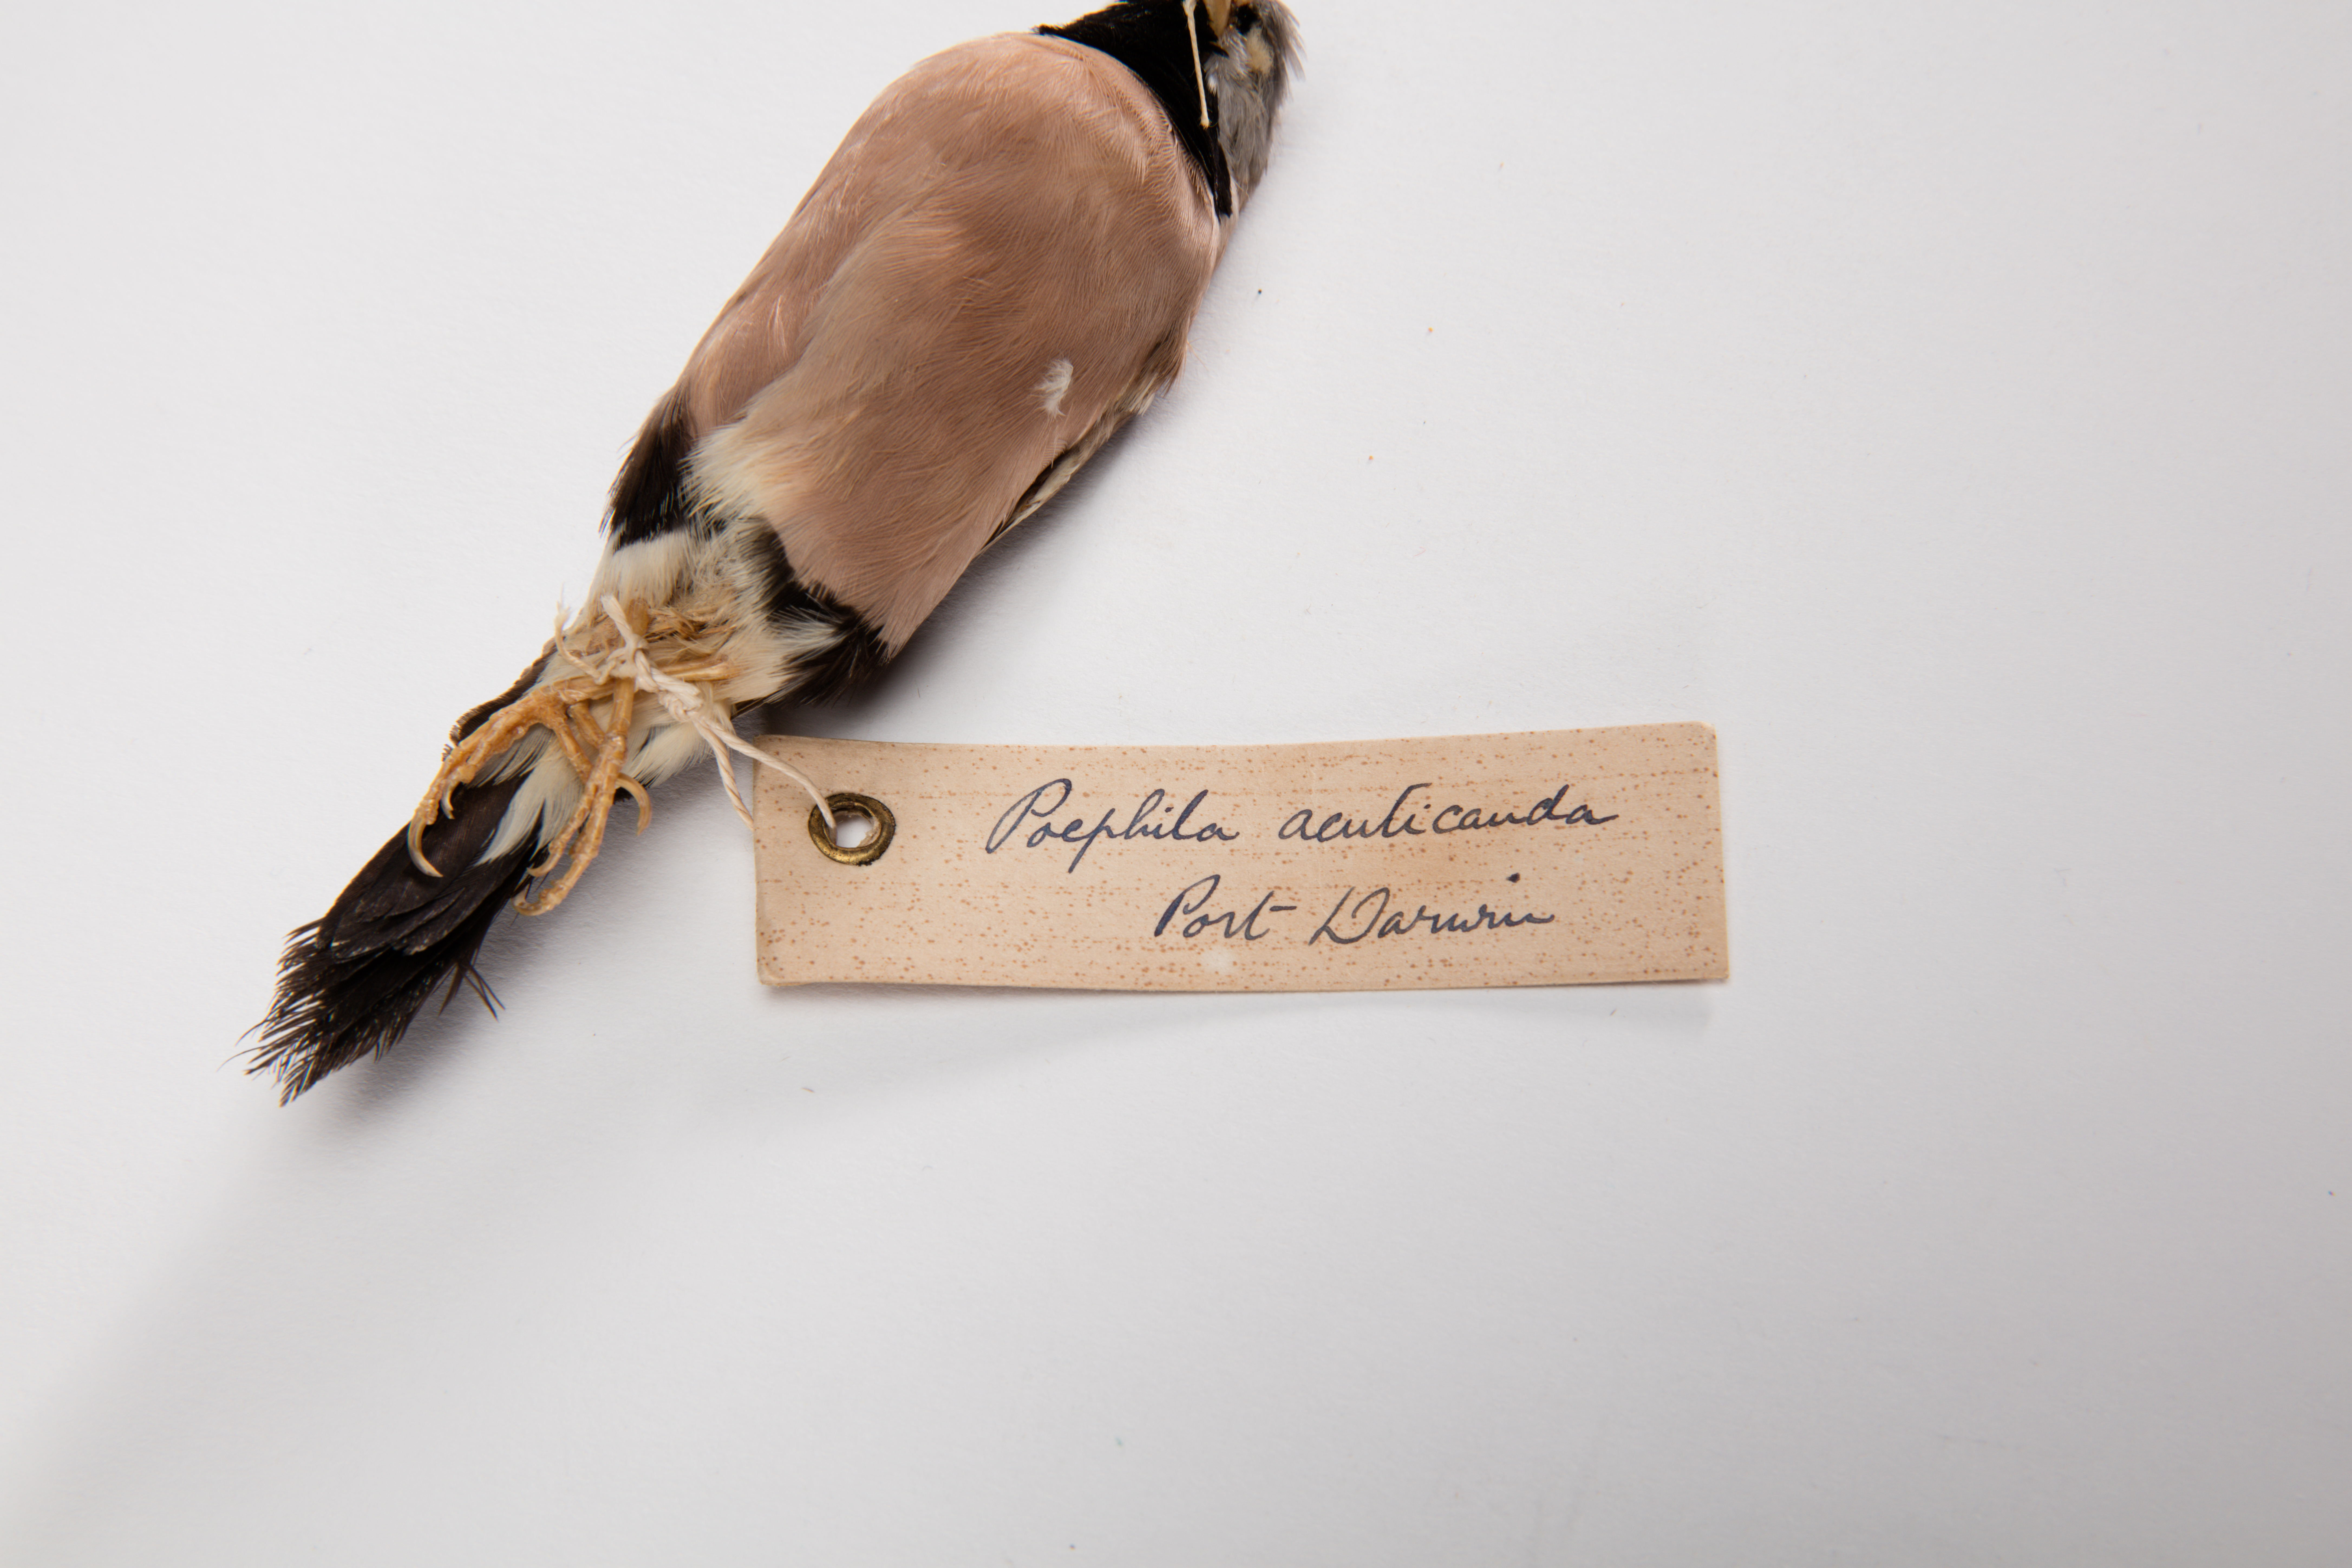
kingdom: Animalia
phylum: Chordata
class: Aves
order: Passeriformes
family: Estrildidae
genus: Poephila
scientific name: Poephila acuticauda
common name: Long-tailed finch
